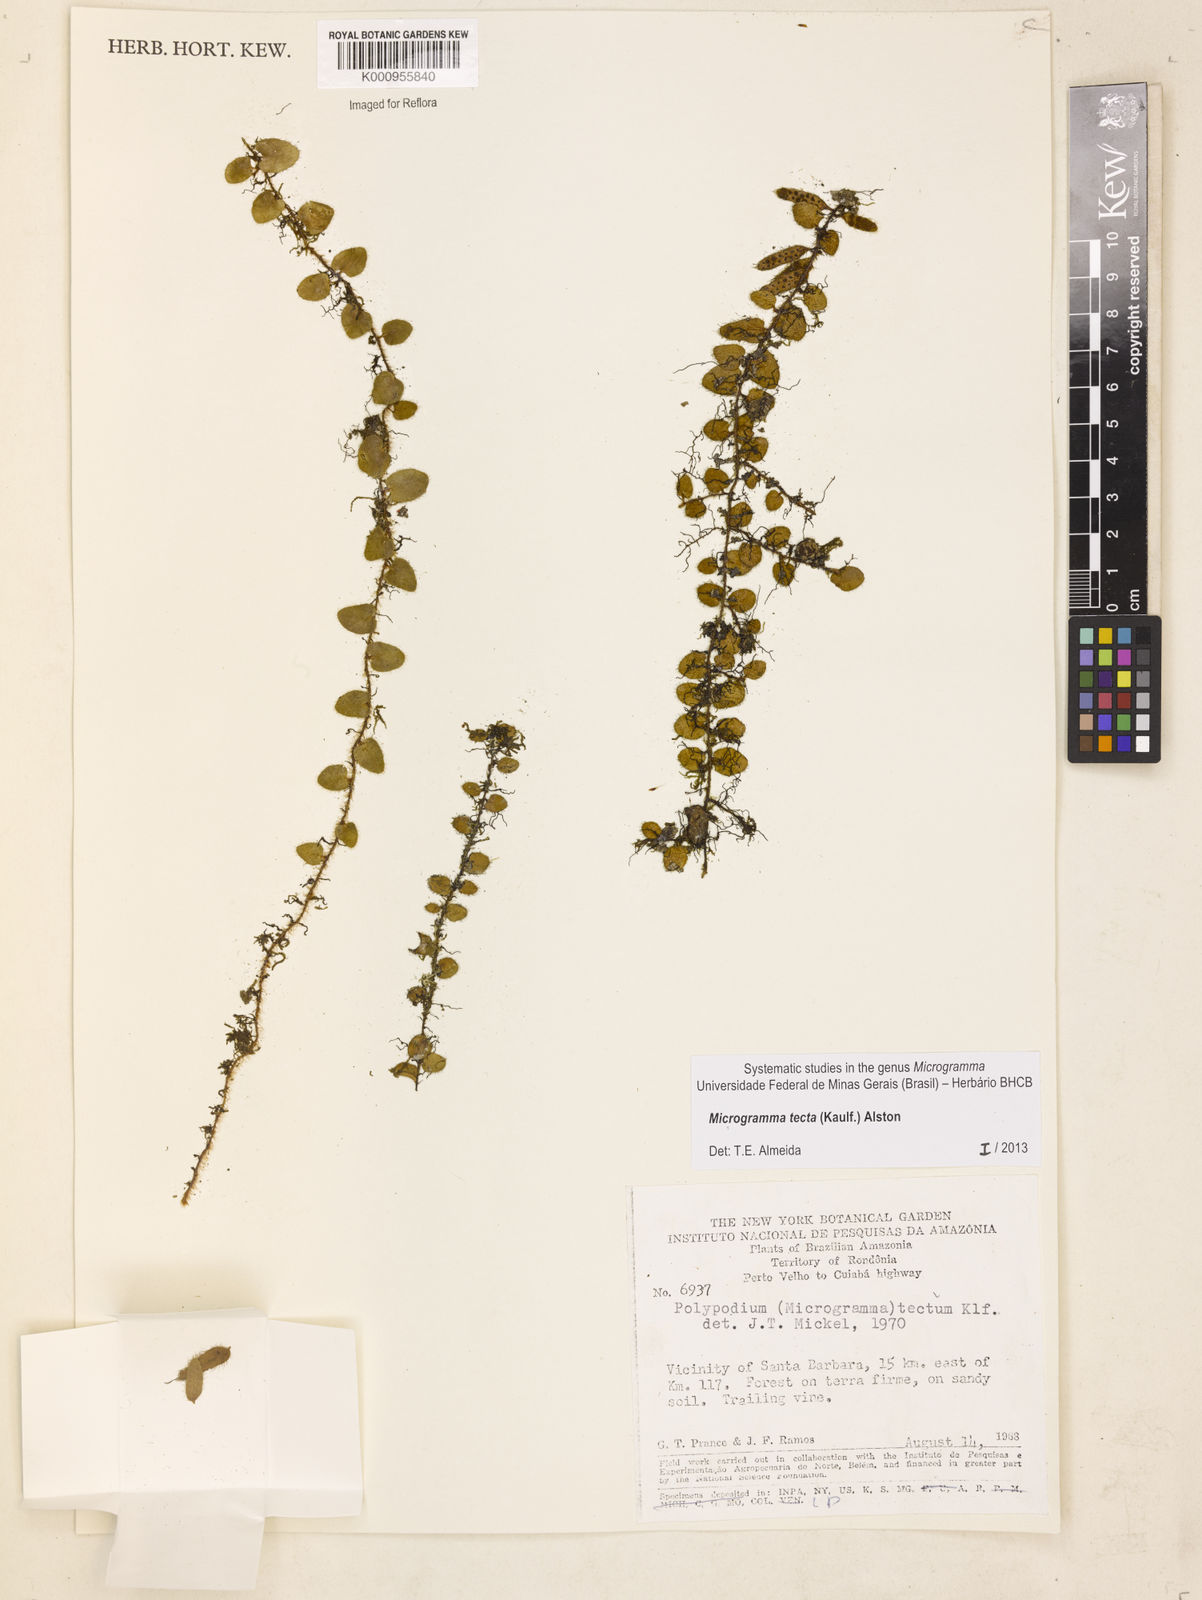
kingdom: Plantae
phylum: Tracheophyta
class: Polypodiopsida
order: Polypodiales
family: Polypodiaceae
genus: Microgramma
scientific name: Microgramma tecta
